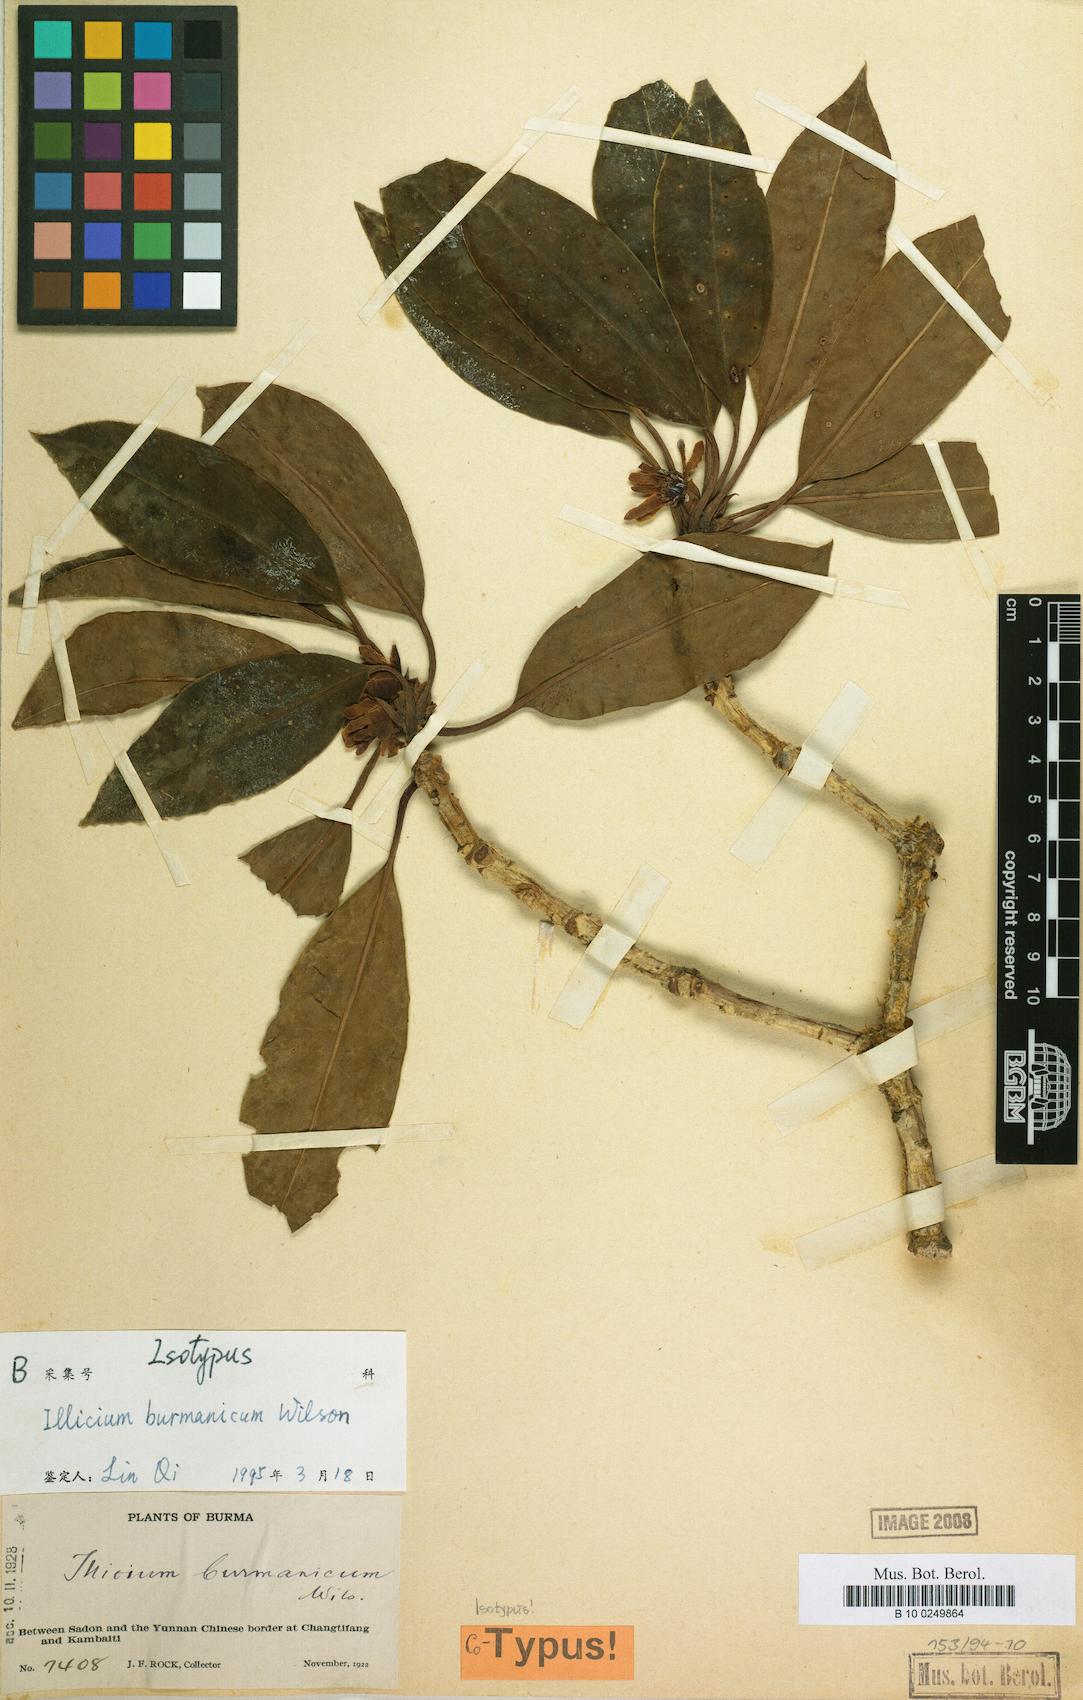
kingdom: Plantae
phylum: Tracheophyta
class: Magnoliopsida
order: Austrobaileyales
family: Schisandraceae
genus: Illicium
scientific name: Illicium burmanicum
